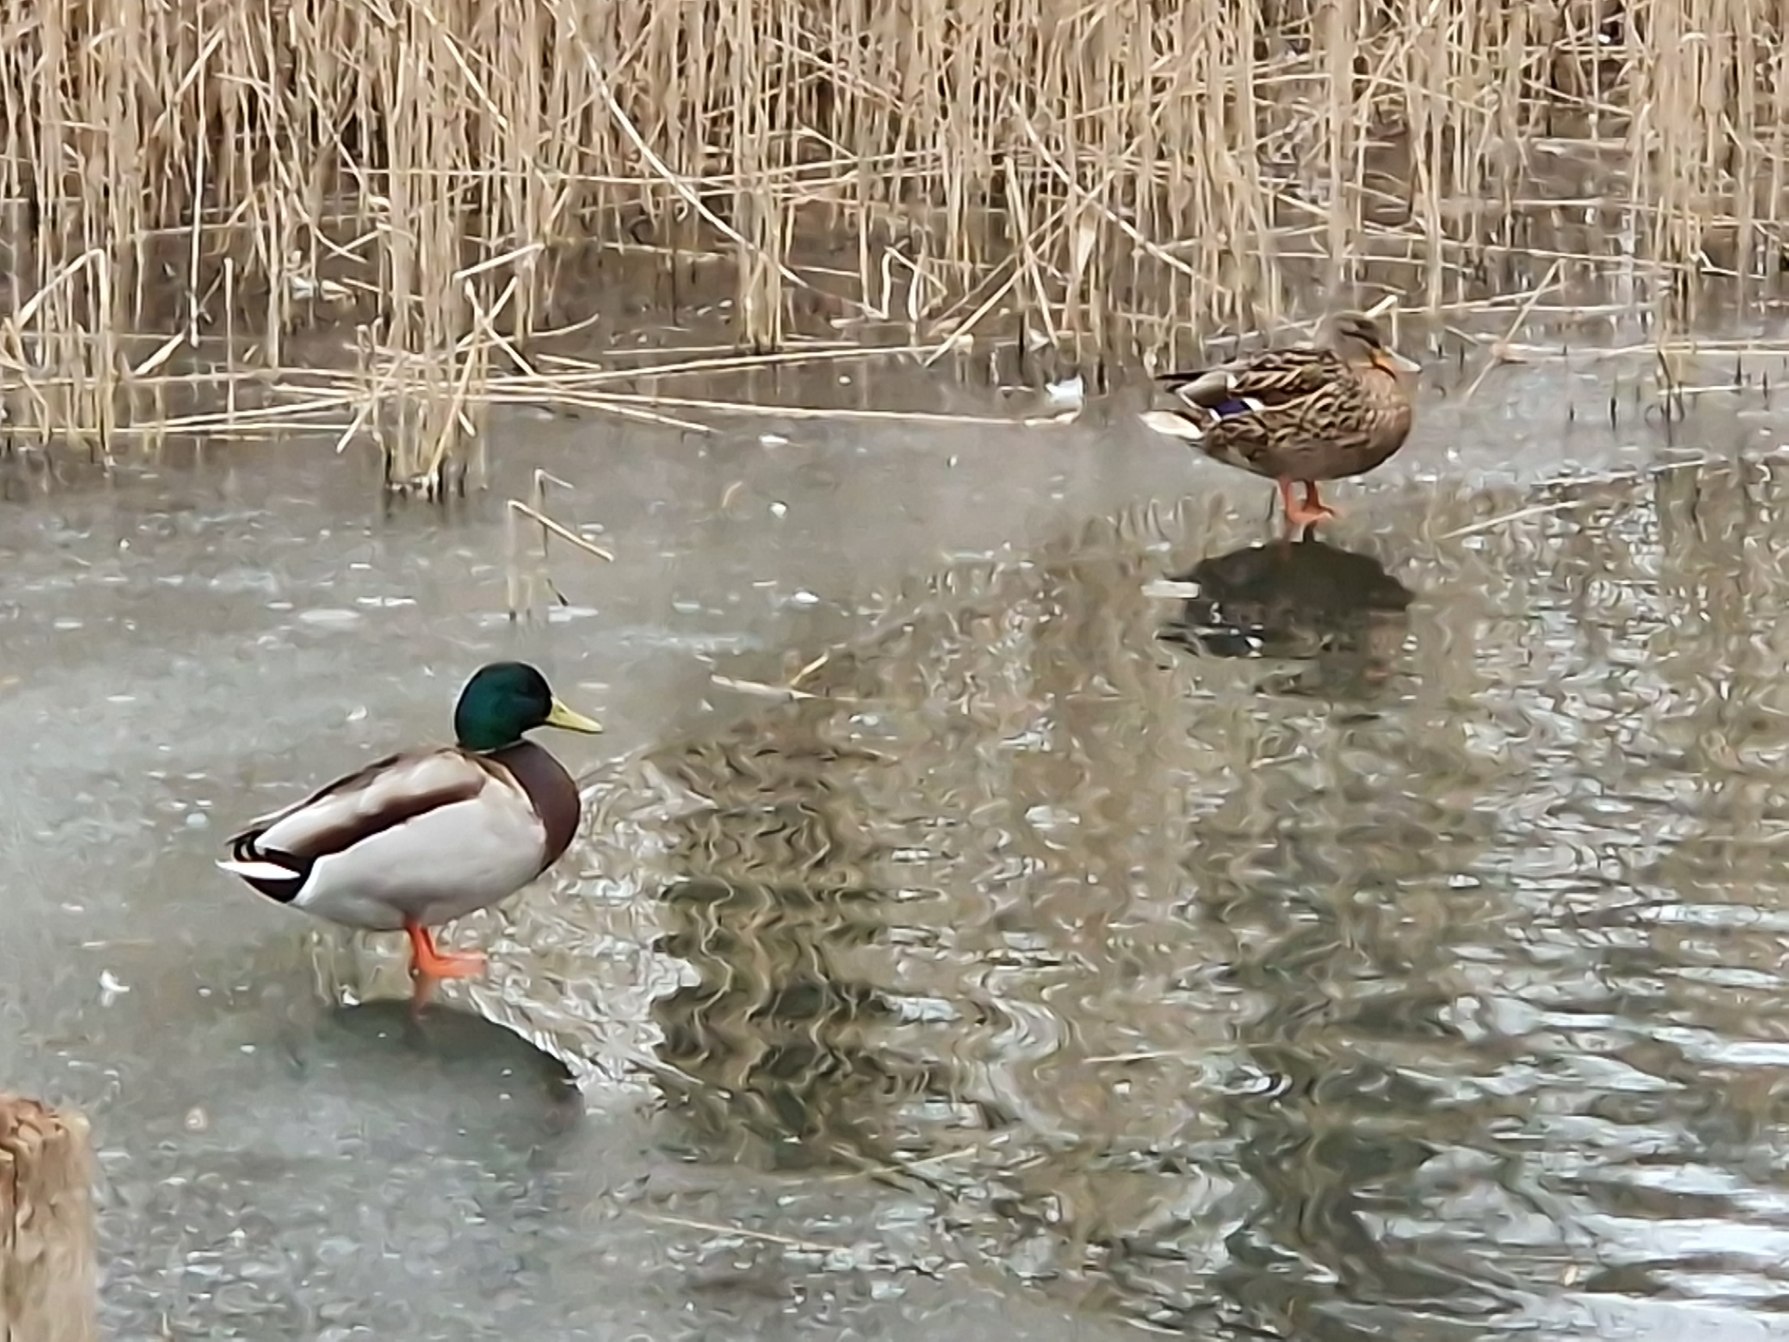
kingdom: Animalia
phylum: Chordata
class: Aves
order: Anseriformes
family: Anatidae
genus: Anas
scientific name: Anas platyrhynchos
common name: Gråand
